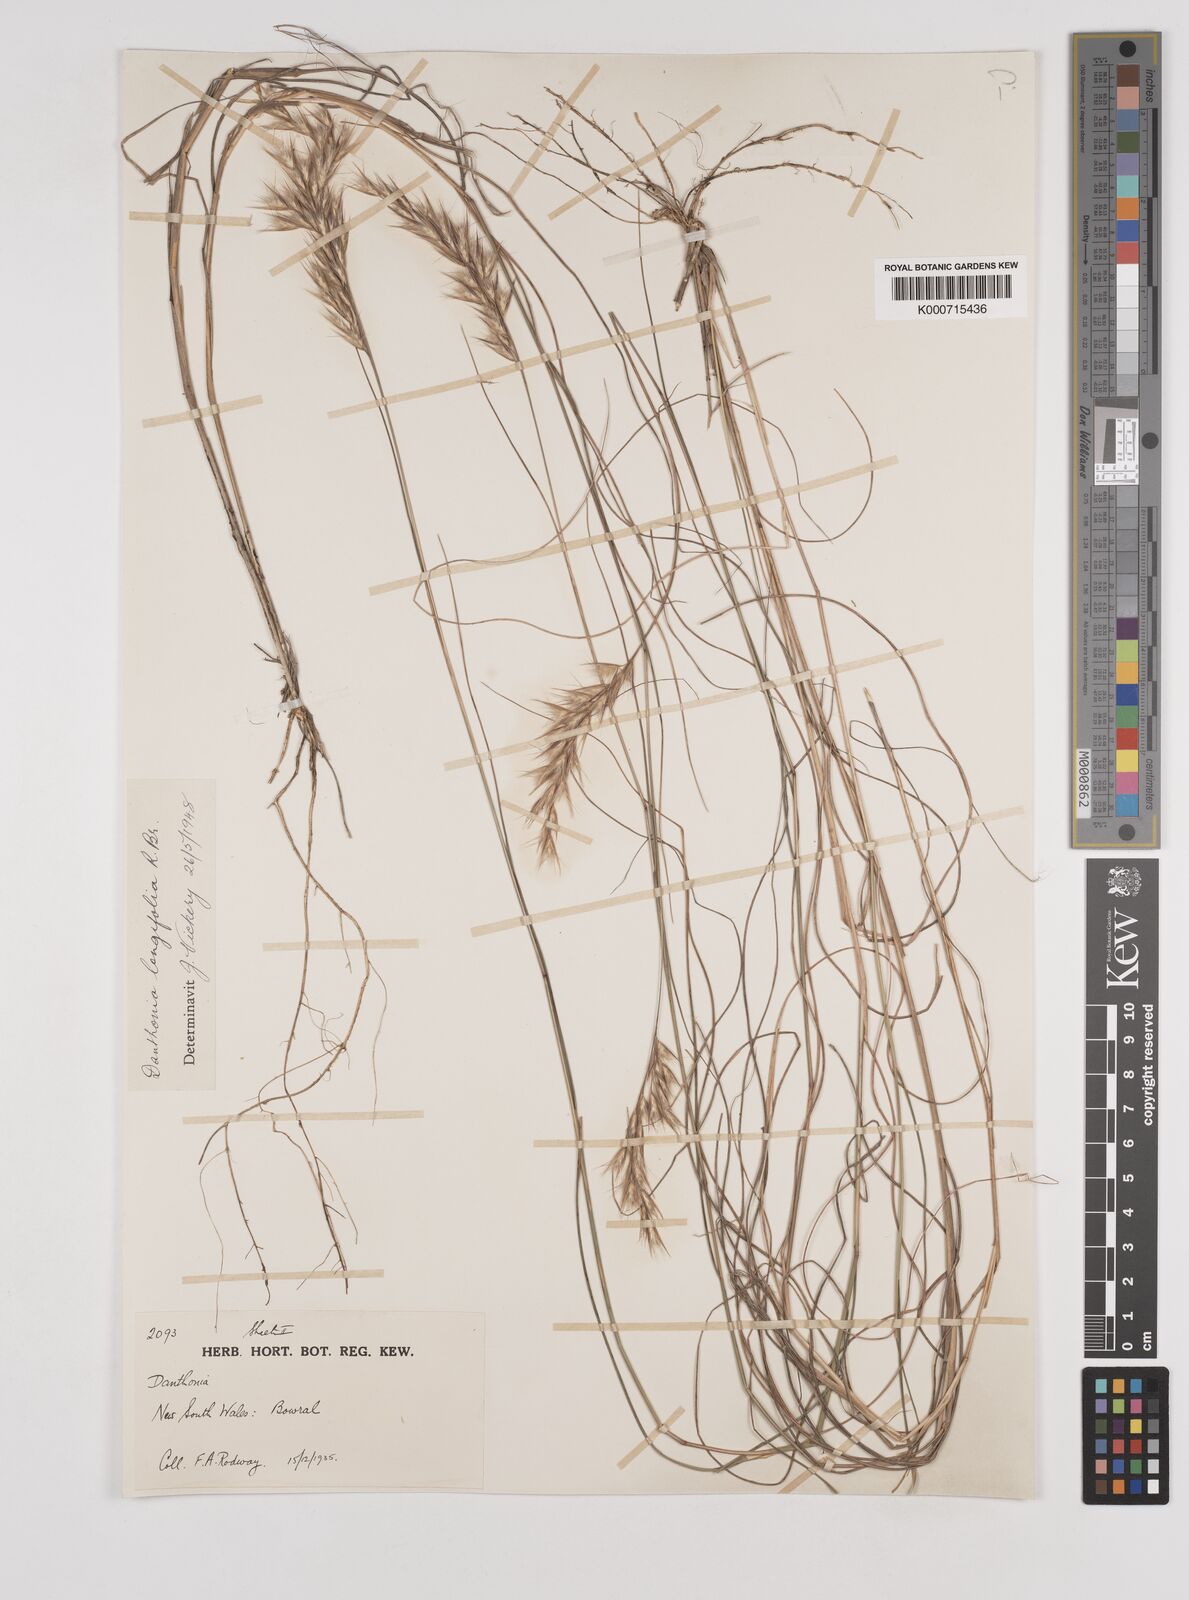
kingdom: Plantae
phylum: Tracheophyta
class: Liliopsida
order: Poales
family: Poaceae
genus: Rytidosperma
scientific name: Rytidosperma longifolium
